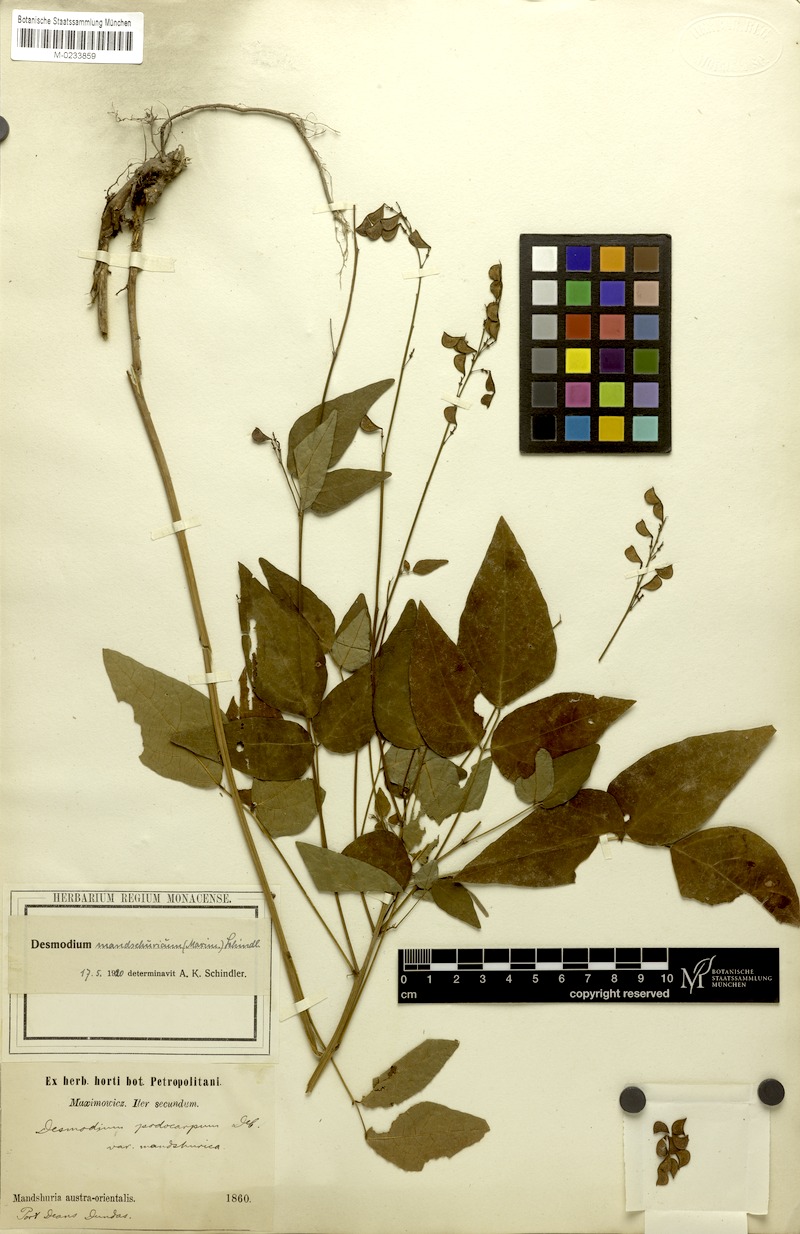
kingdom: Plantae
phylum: Tracheophyta
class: Magnoliopsida
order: Fabales
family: Fabaceae
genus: Hylodesmum
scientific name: Hylodesmum podocarpum
